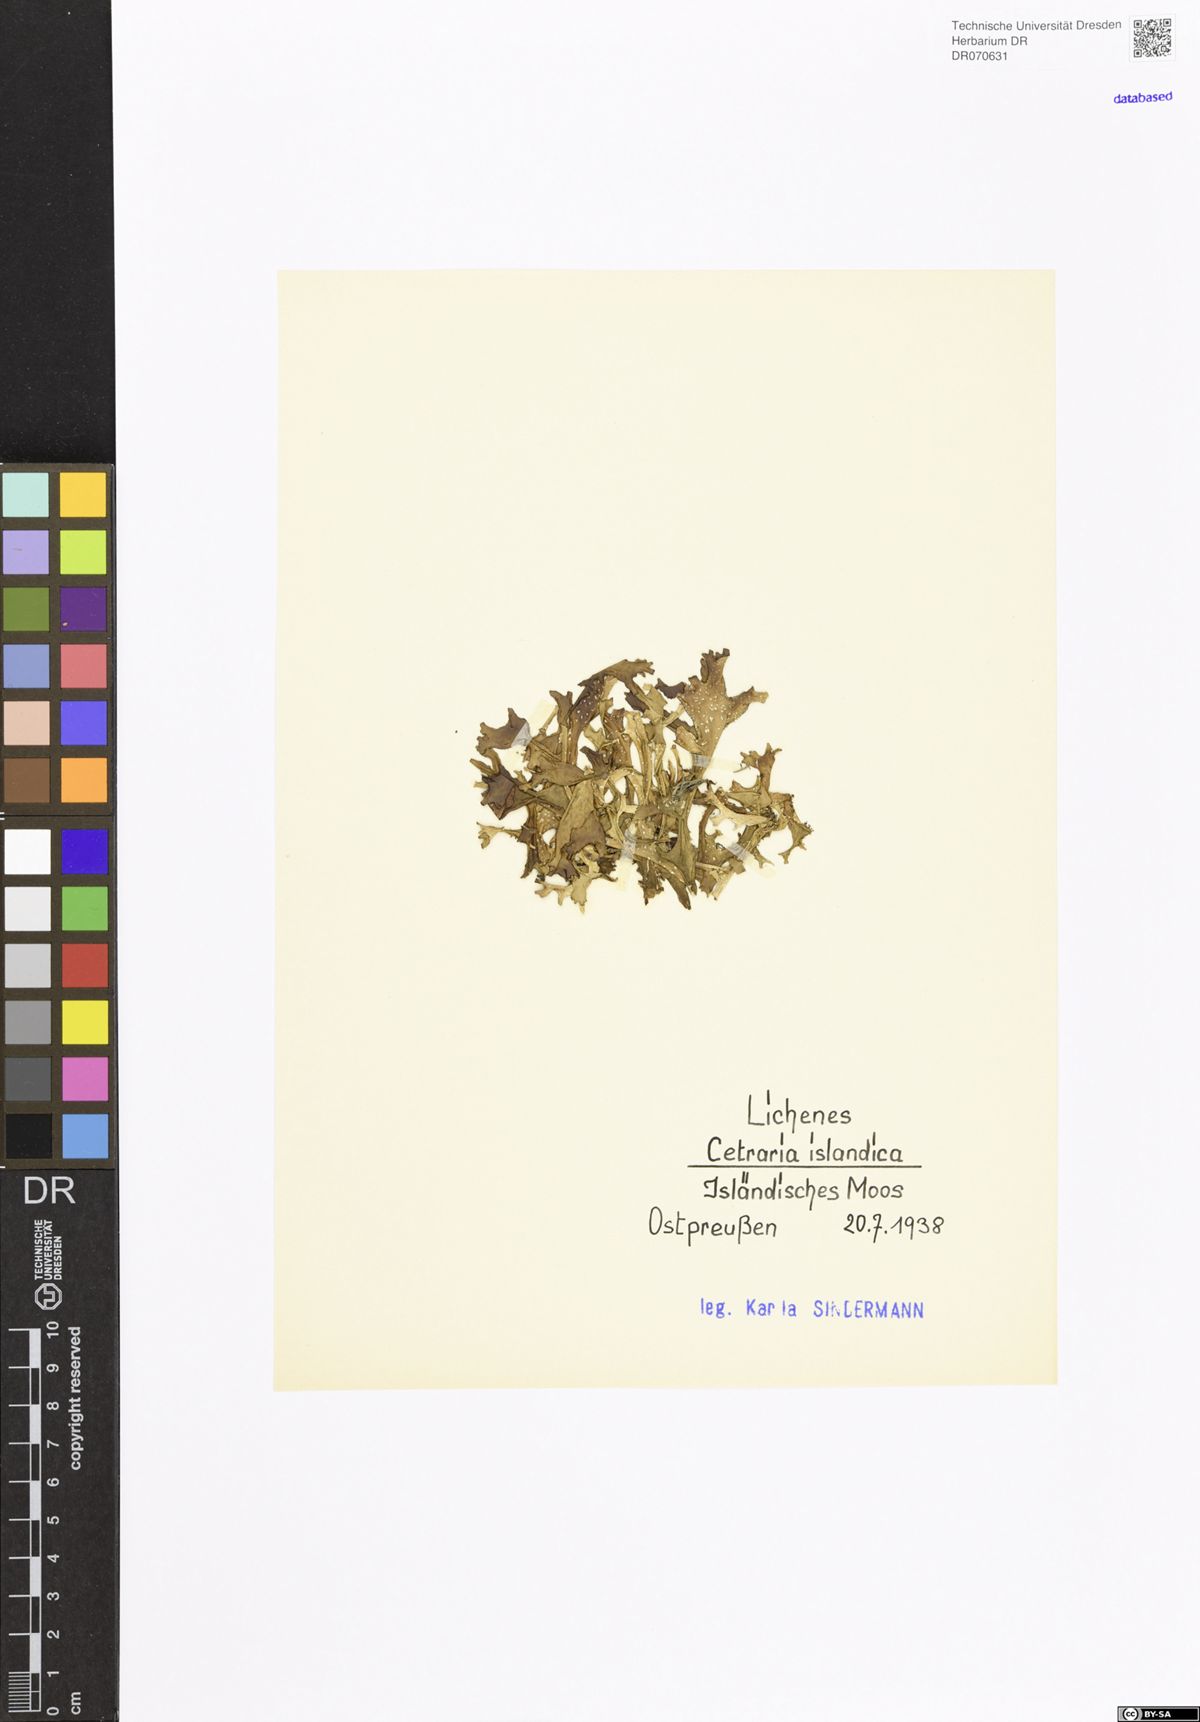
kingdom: Fungi
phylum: Ascomycota
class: Lecanoromycetes
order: Lecanorales
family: Parmeliaceae
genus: Cetraria
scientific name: Cetraria islandica
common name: Iceland lichen
